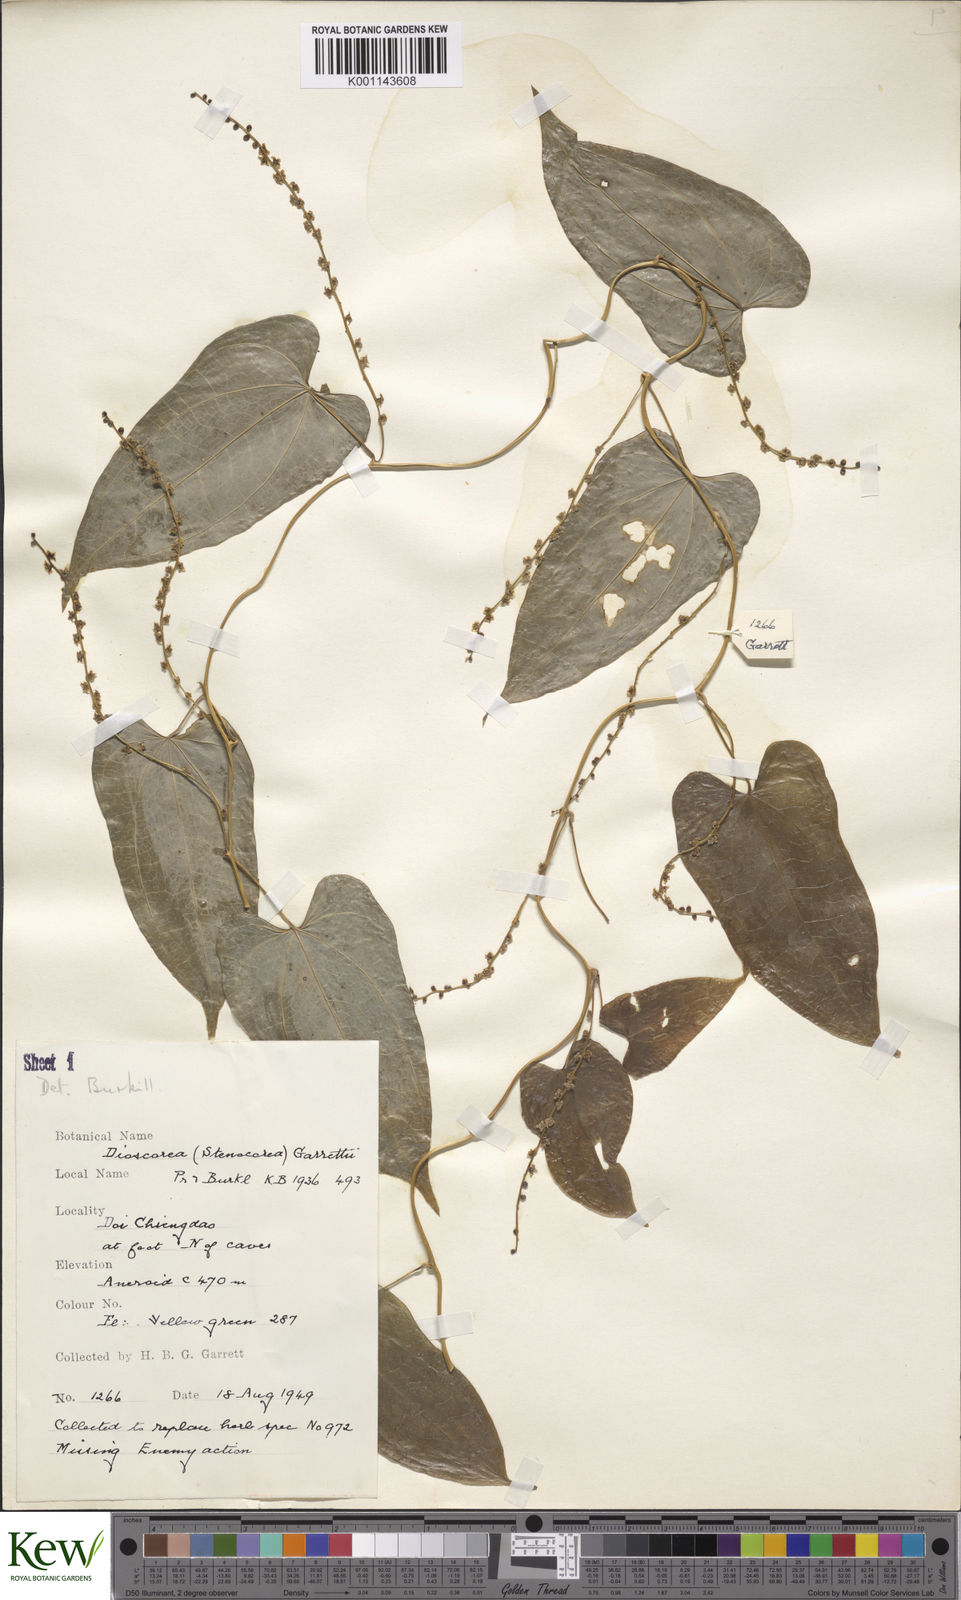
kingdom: Plantae
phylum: Tracheophyta
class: Liliopsida
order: Dioscoreales
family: Dioscoreaceae
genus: Dioscorea
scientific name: Dioscorea garrettii
